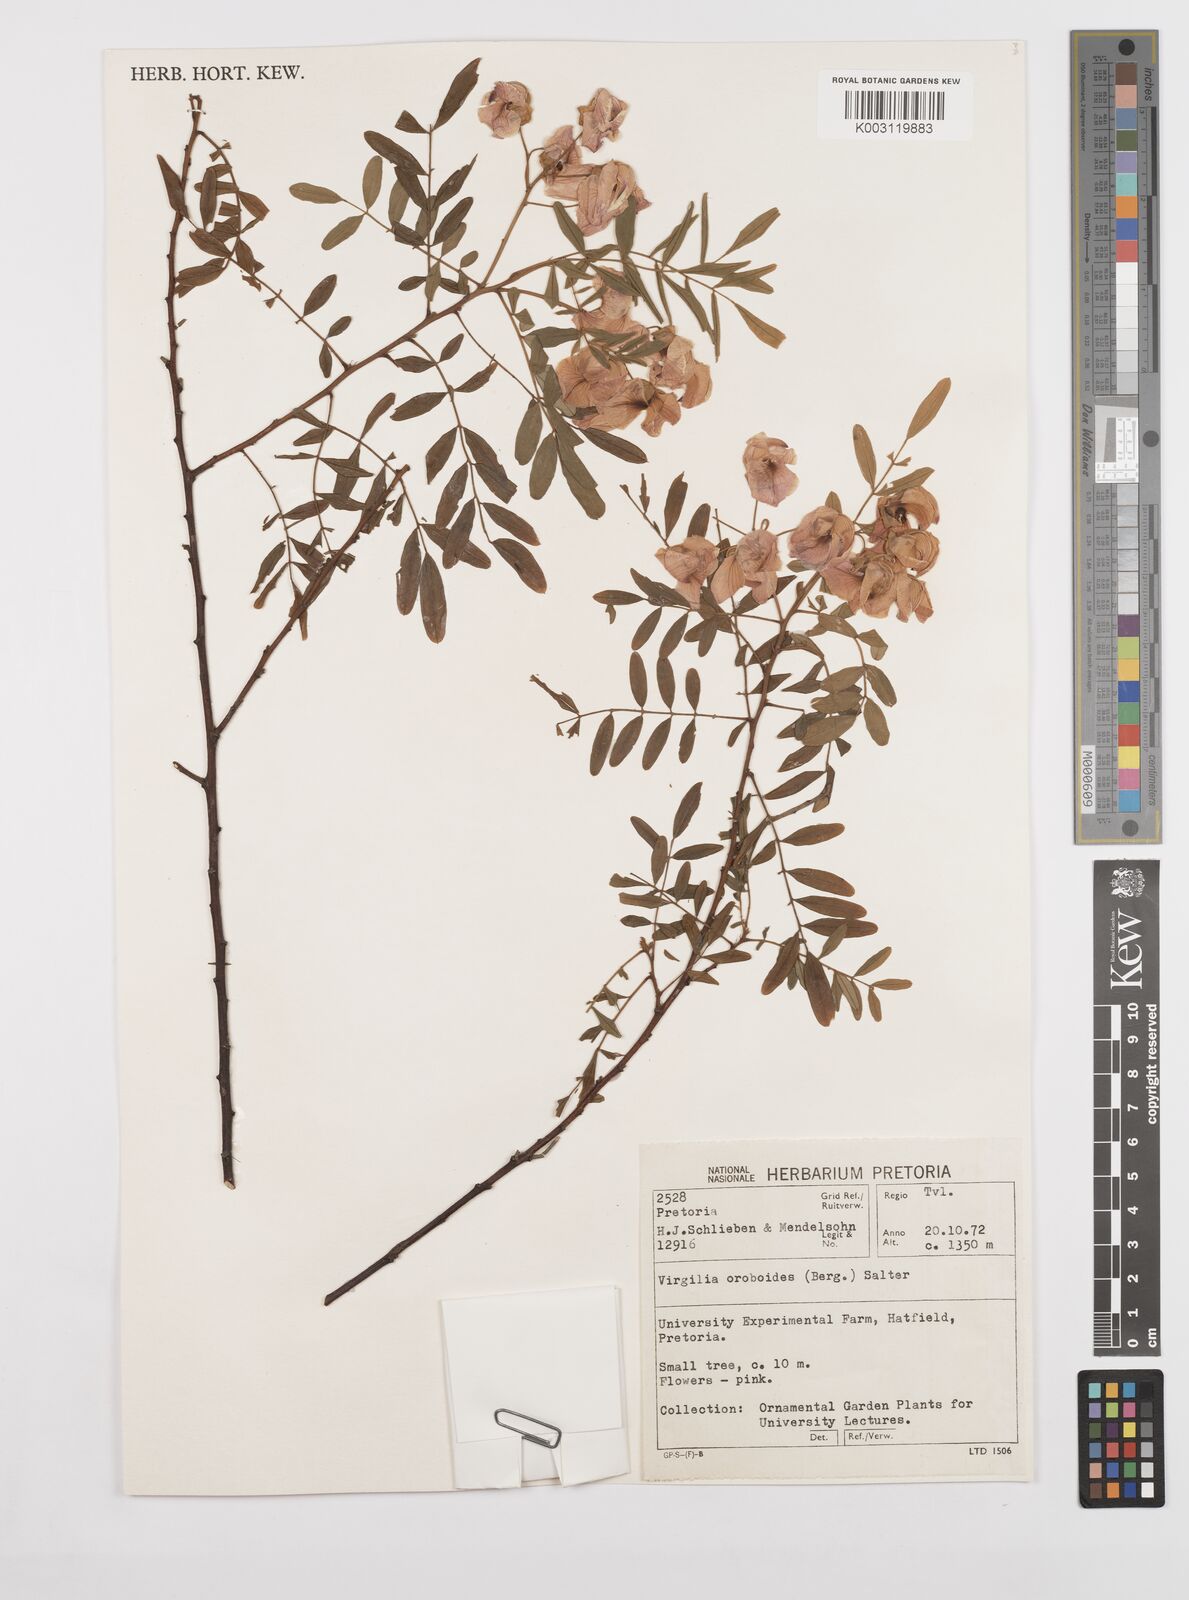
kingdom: Plantae
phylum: Tracheophyta
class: Magnoliopsida
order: Fabales
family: Fabaceae
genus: Virgilia
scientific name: Virgilia oroboides
